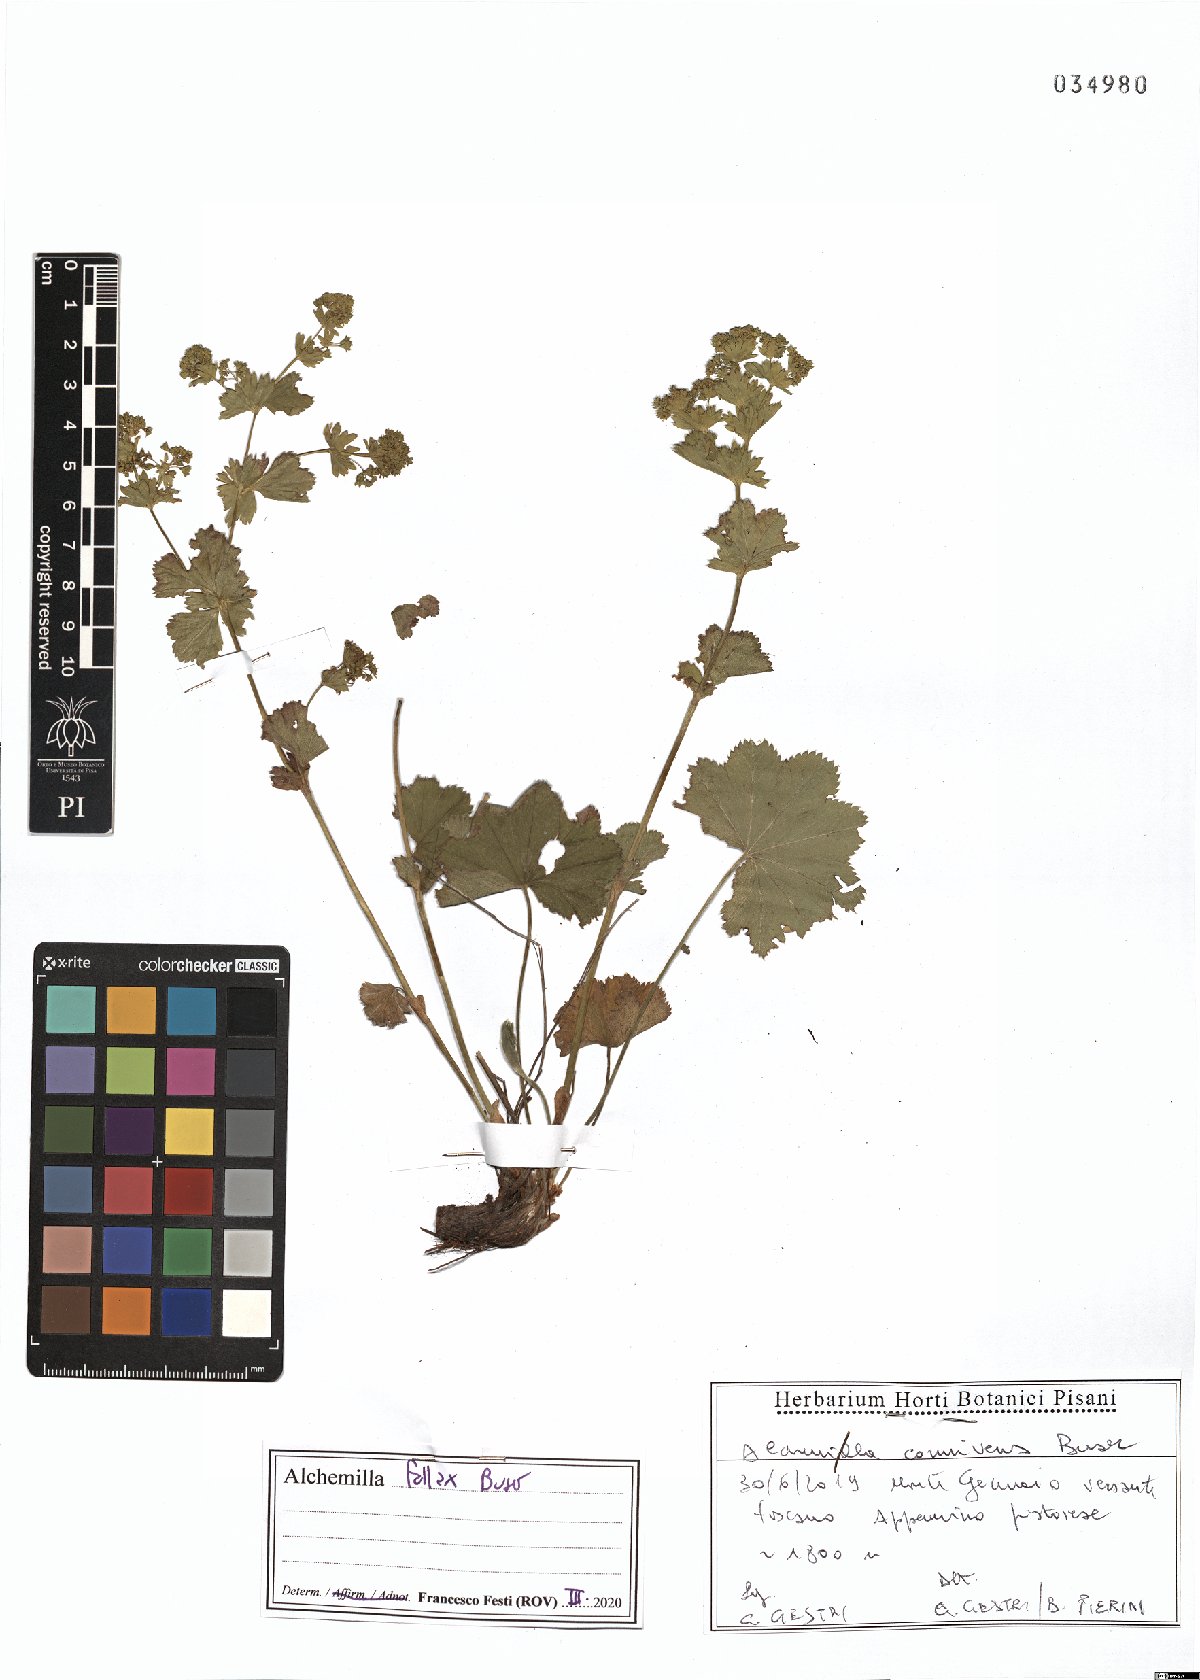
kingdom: Plantae
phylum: Tracheophyta
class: Magnoliopsida
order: Rosales
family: Rosaceae
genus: Alchemilla
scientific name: Alchemilla fallax
